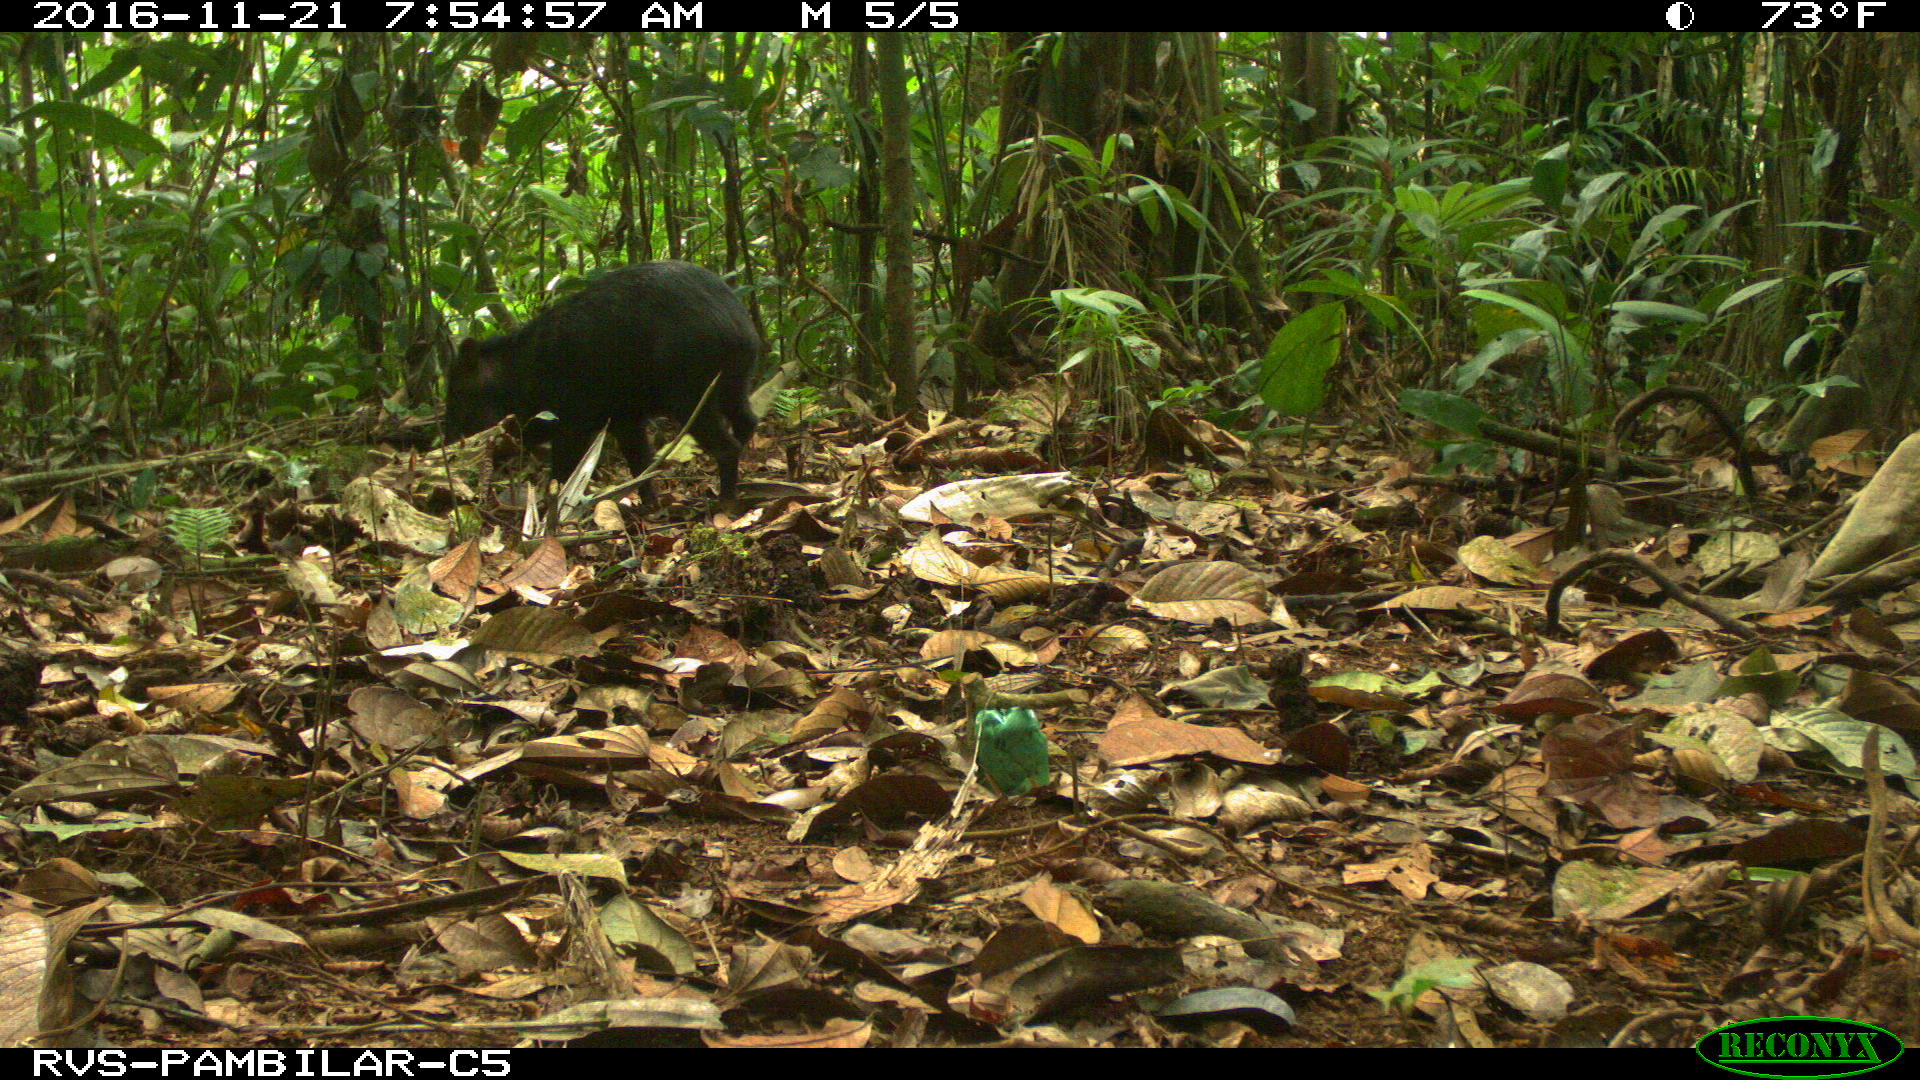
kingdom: Animalia
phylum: Chordata
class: Mammalia
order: Artiodactyla
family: Tayassuidae
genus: Pecari
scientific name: Pecari tajacu
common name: Collared peccary
